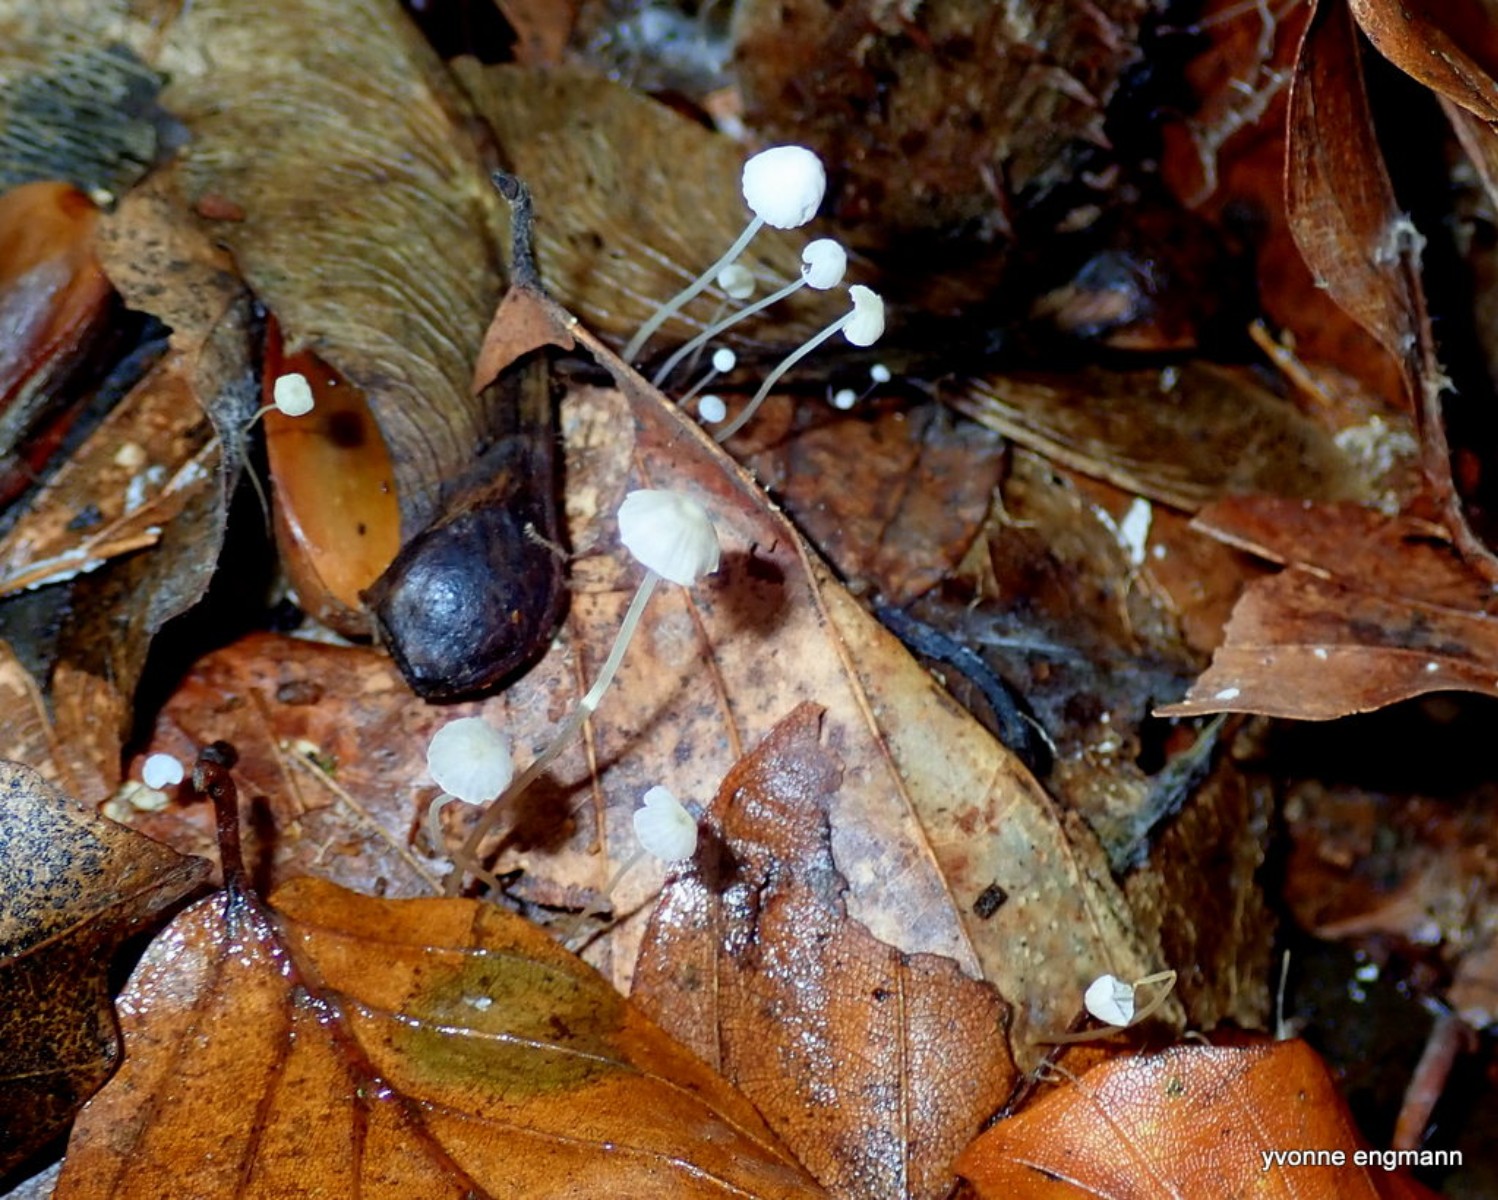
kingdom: Fungi
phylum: Basidiomycota
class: Agaricomycetes
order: Agaricales
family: Mycenaceae
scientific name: Mycenaceae
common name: huesvampfamilien
